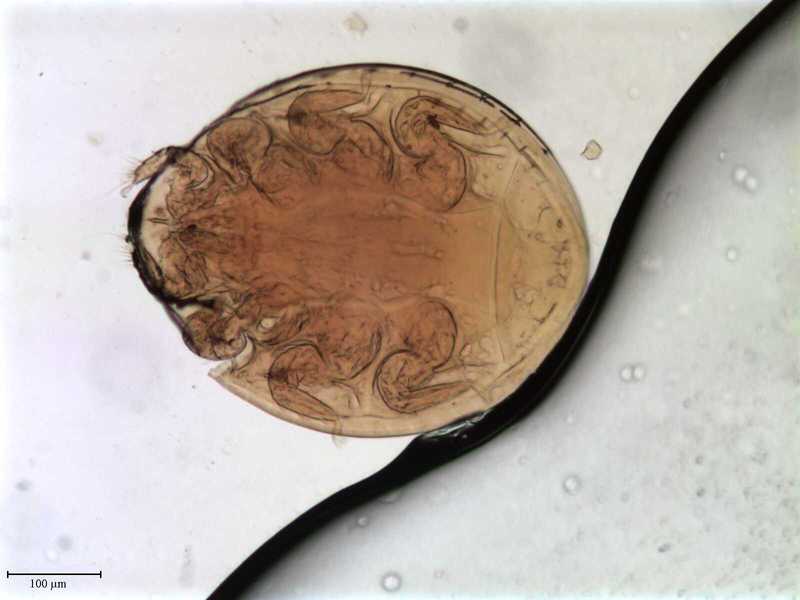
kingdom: Animalia
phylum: Arthropoda
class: Arachnida
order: Mesostigmata
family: Uropodidae
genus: Uropoda
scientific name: Uropoda
